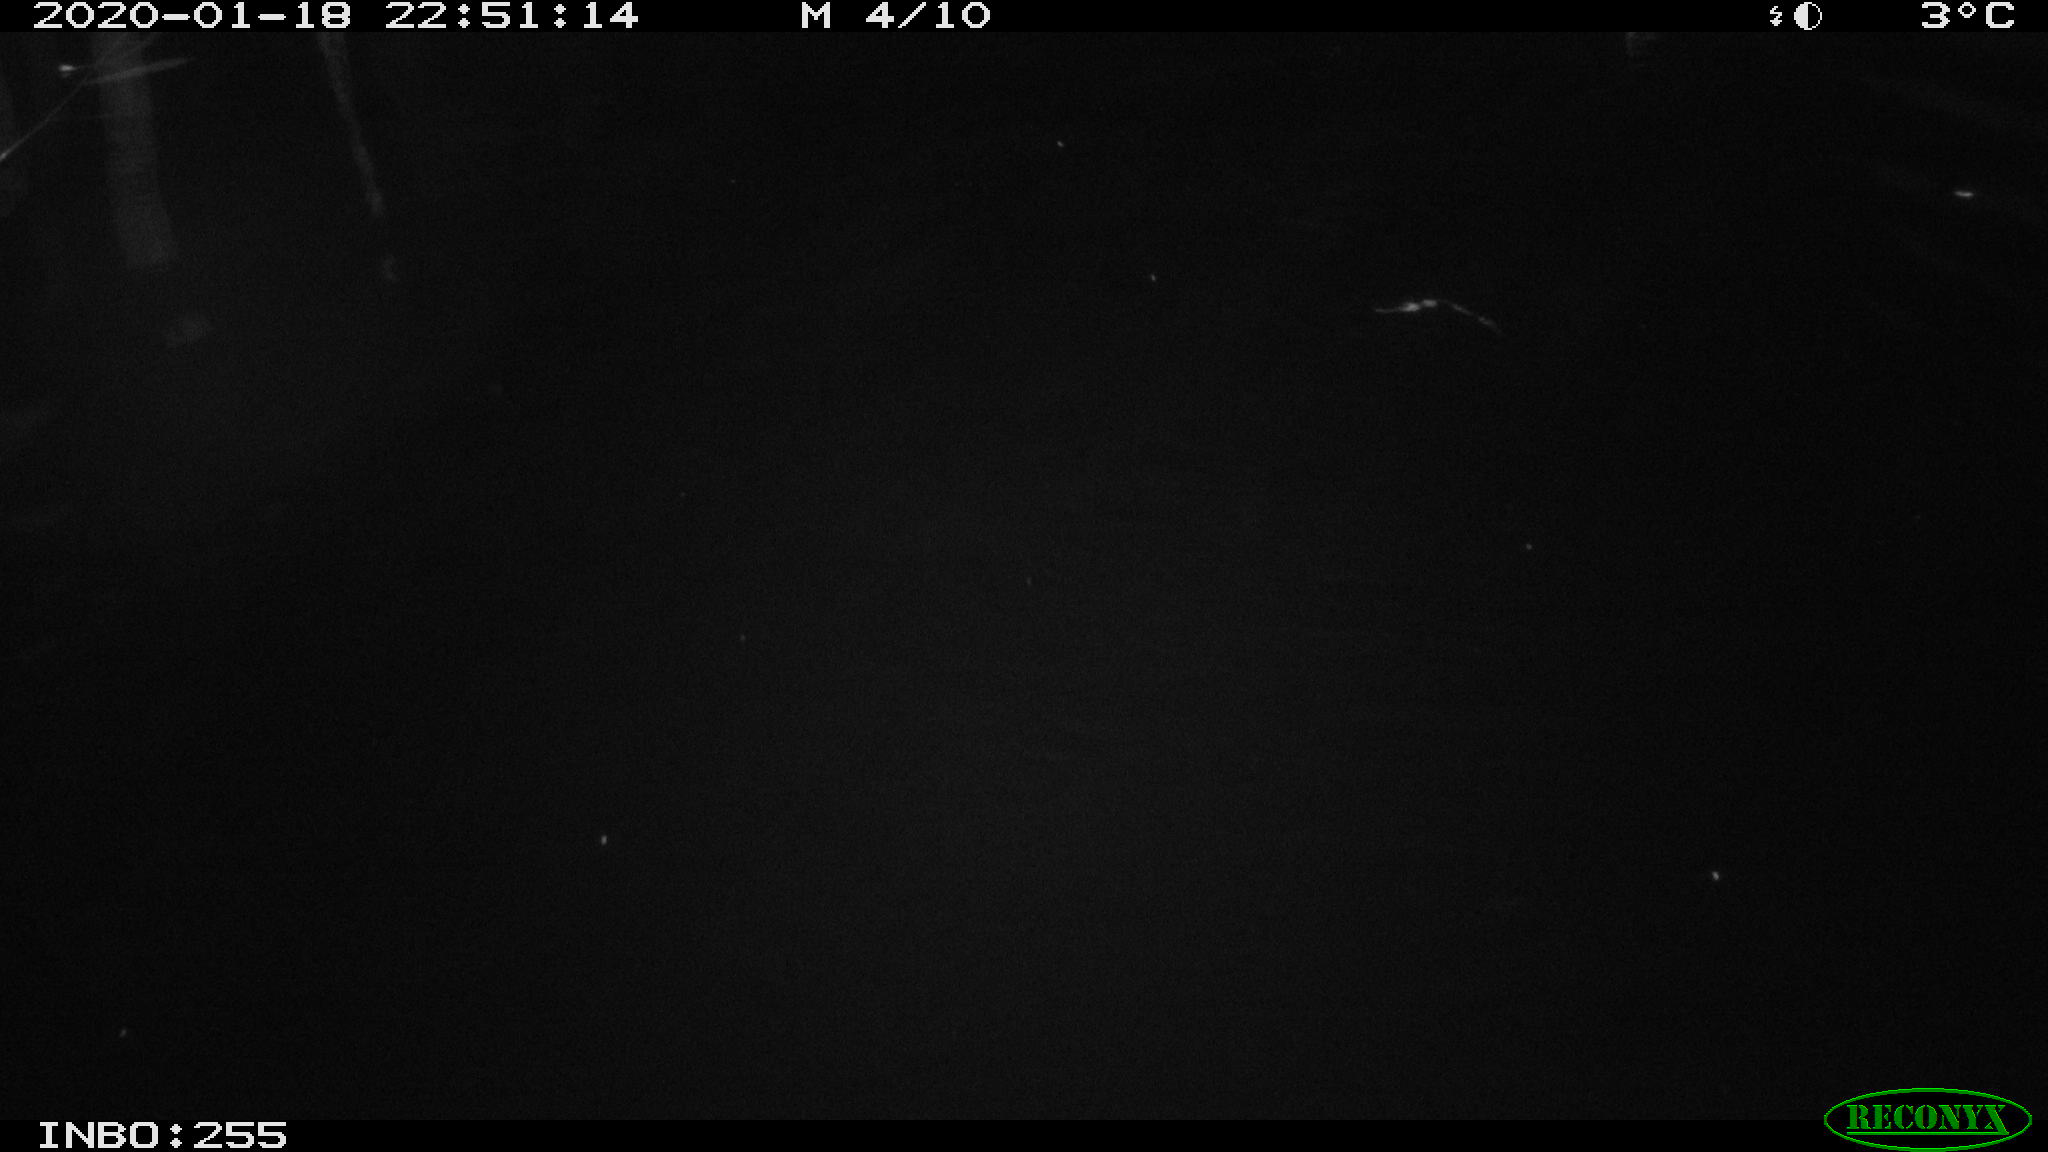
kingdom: Animalia
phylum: Chordata
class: Mammalia
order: Rodentia
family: Cricetidae
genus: Ondatra
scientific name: Ondatra zibethicus
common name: Muskrat
